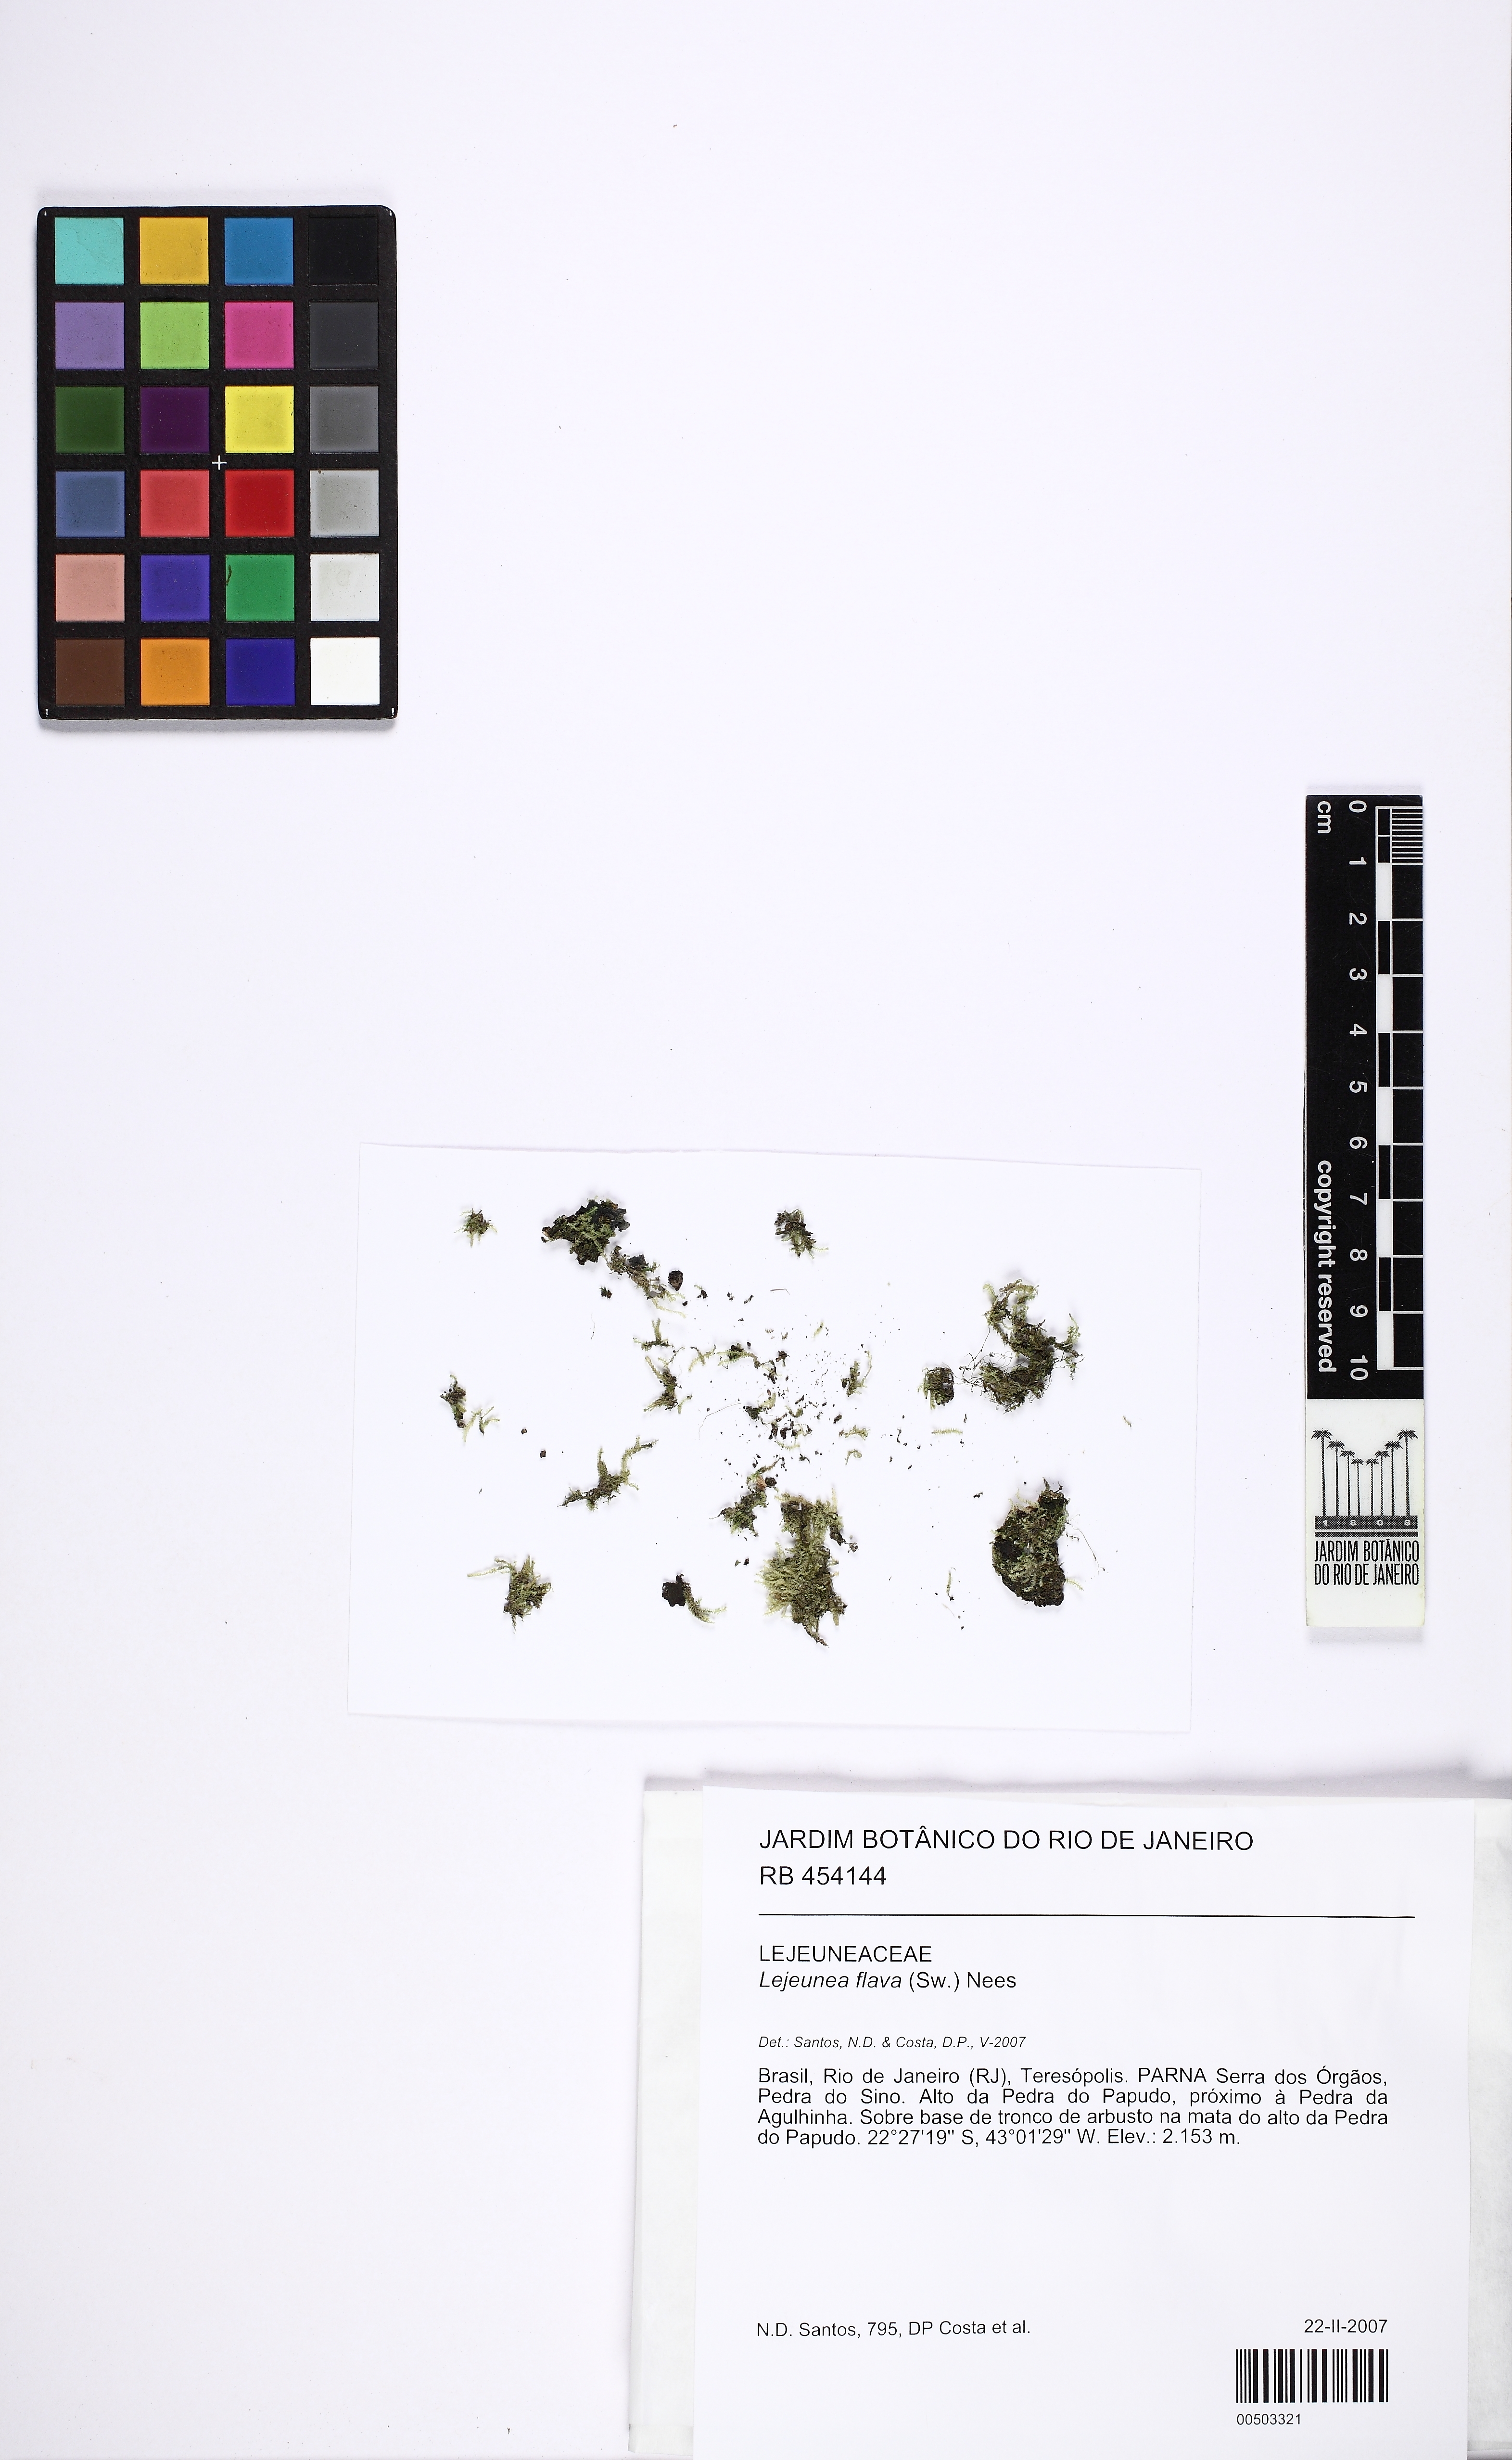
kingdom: Plantae
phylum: Marchantiophyta
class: Jungermanniopsida
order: Porellales
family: Lejeuneaceae
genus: Lejeunea
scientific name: Lejeunea flava
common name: Yellow pouncewort
